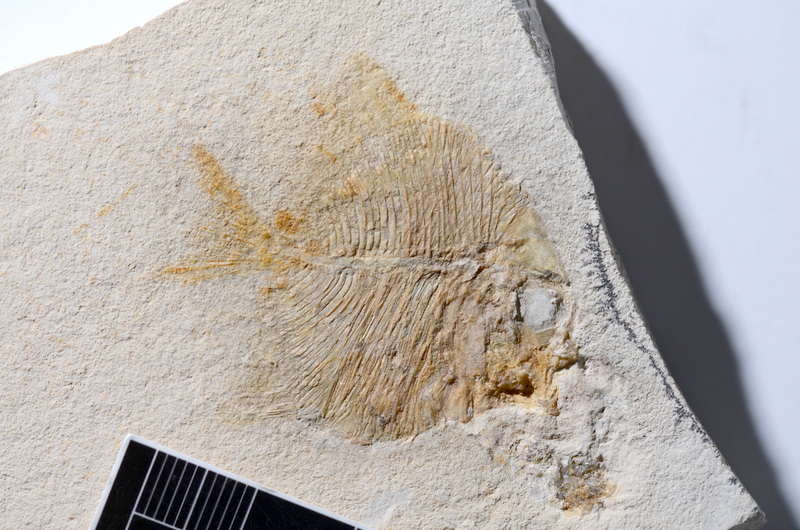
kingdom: Animalia
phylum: Chordata
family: Pycnodontidae
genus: Turbomesodon
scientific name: Turbomesodon relegans
